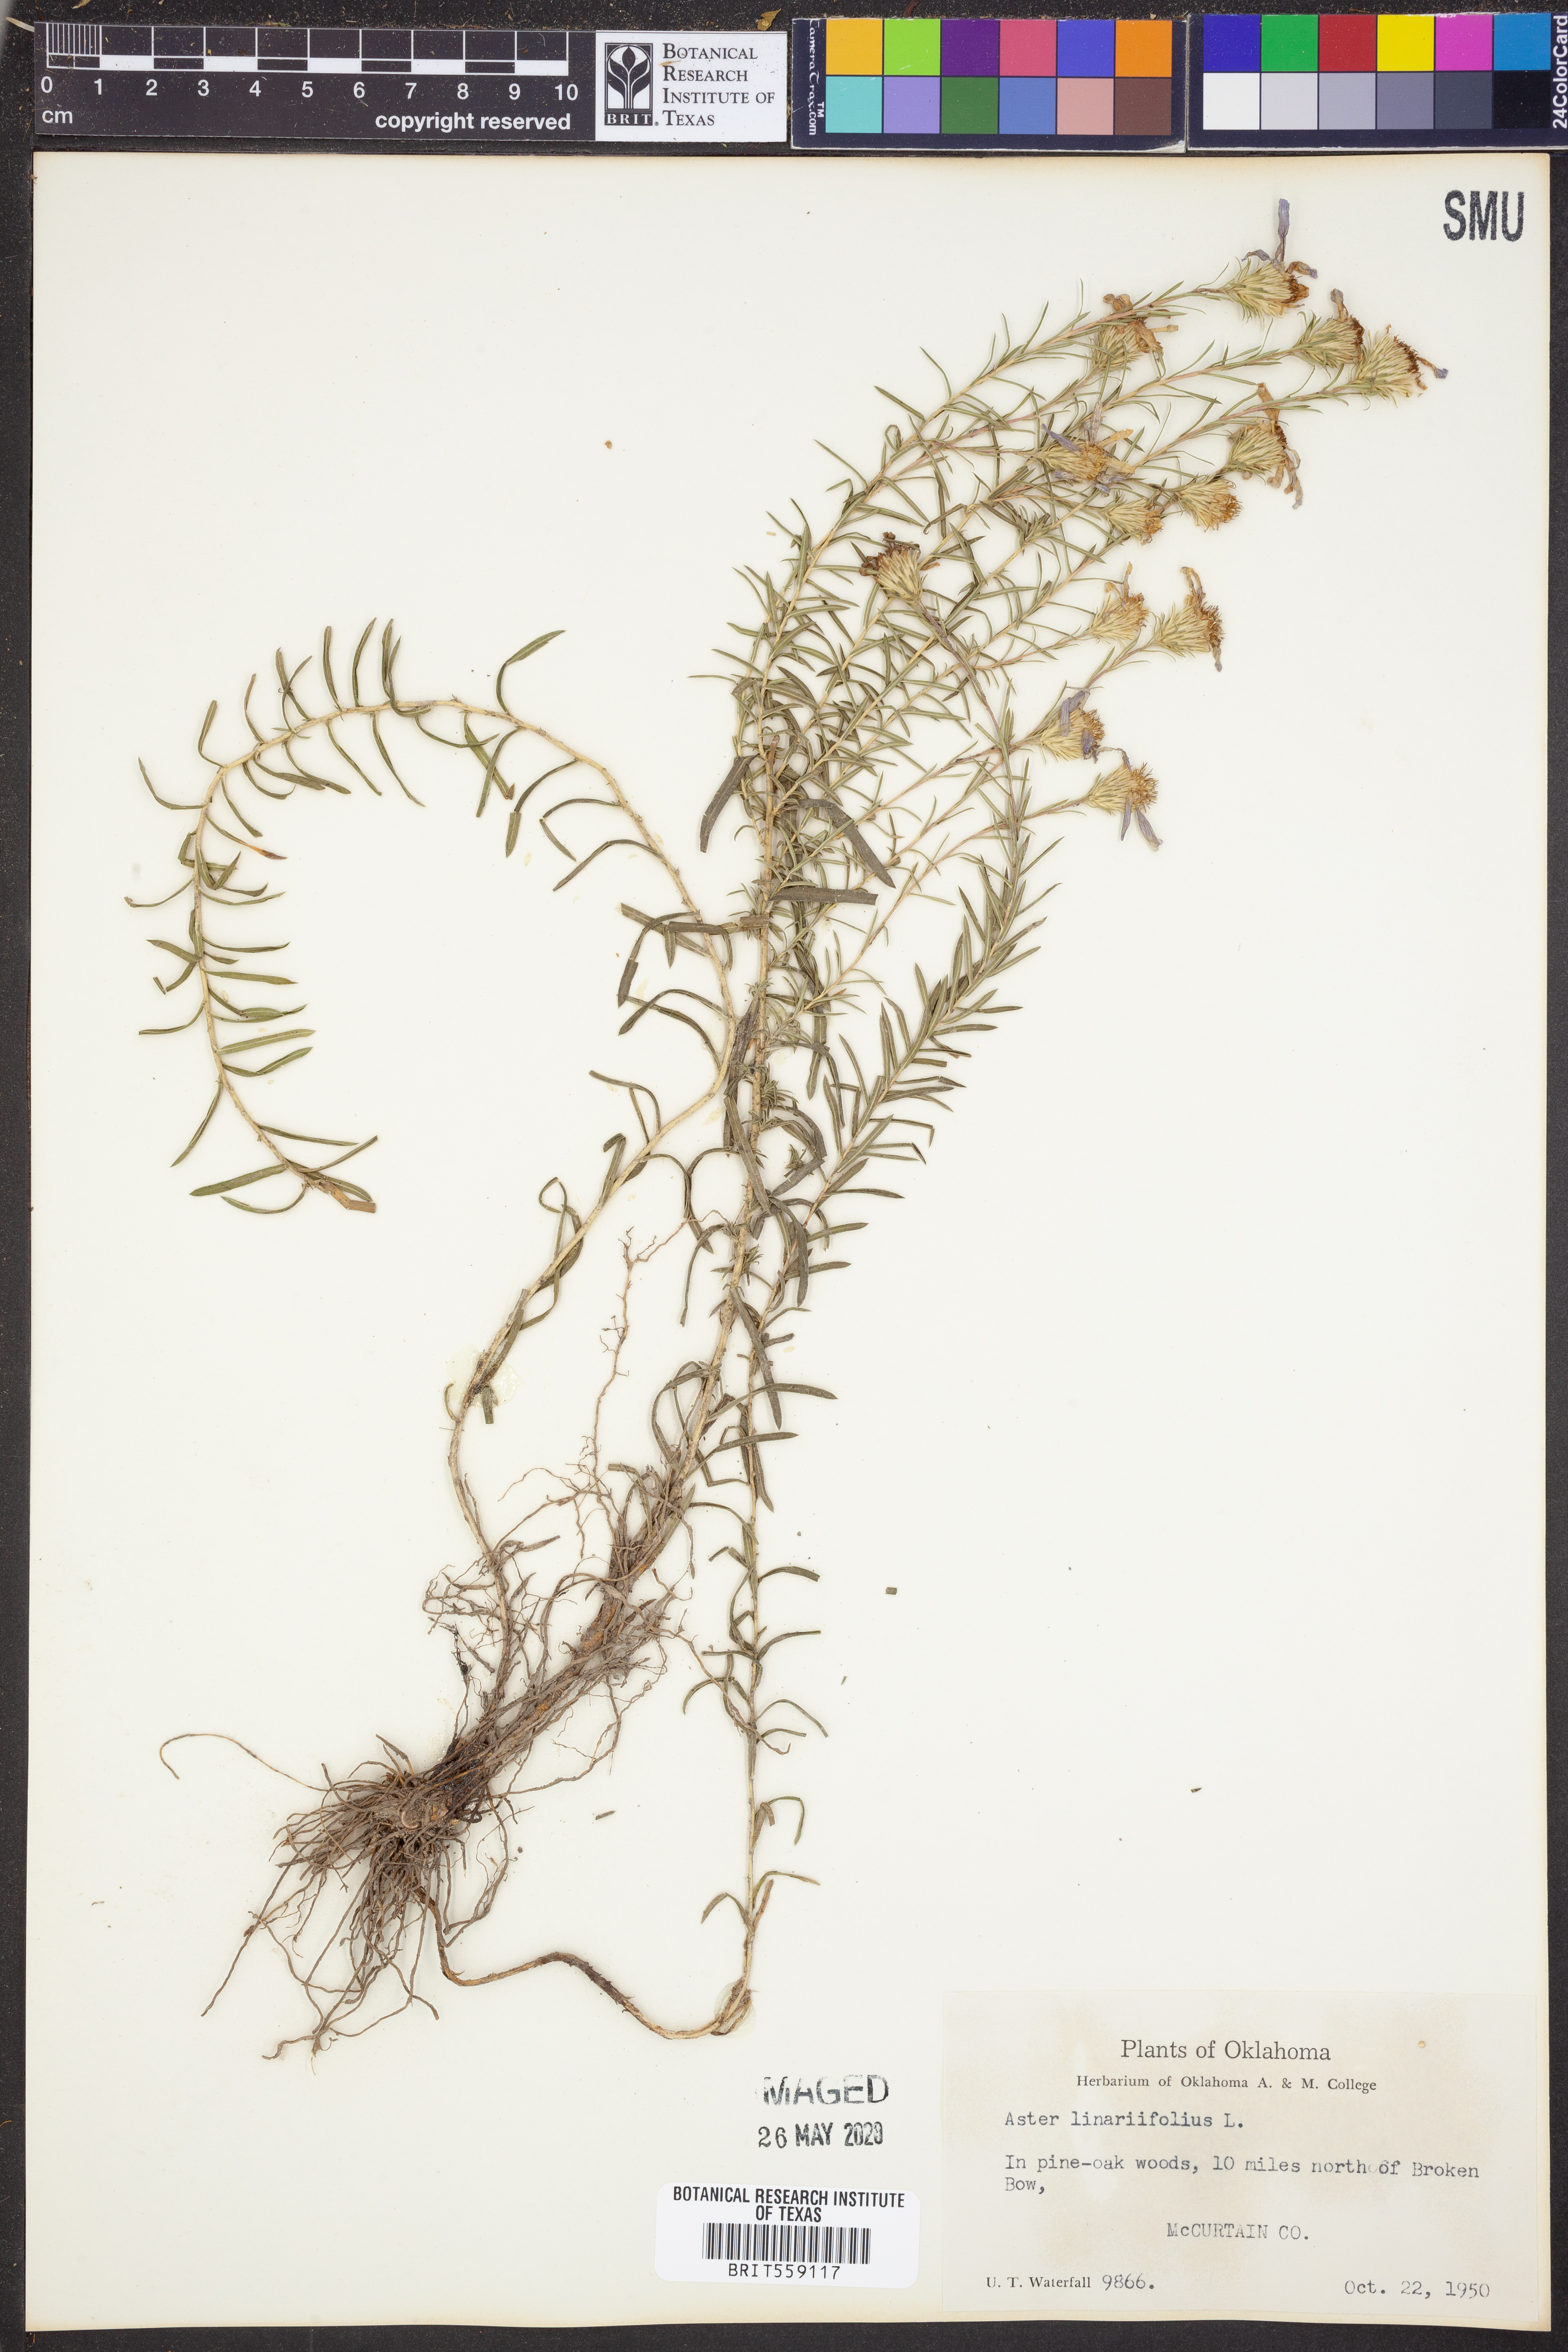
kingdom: Plantae
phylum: Tracheophyta
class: Magnoliopsida
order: Asterales
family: Asteraceae
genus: Ionactis
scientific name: Ionactis linariifolia
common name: Flax-leaf aster
